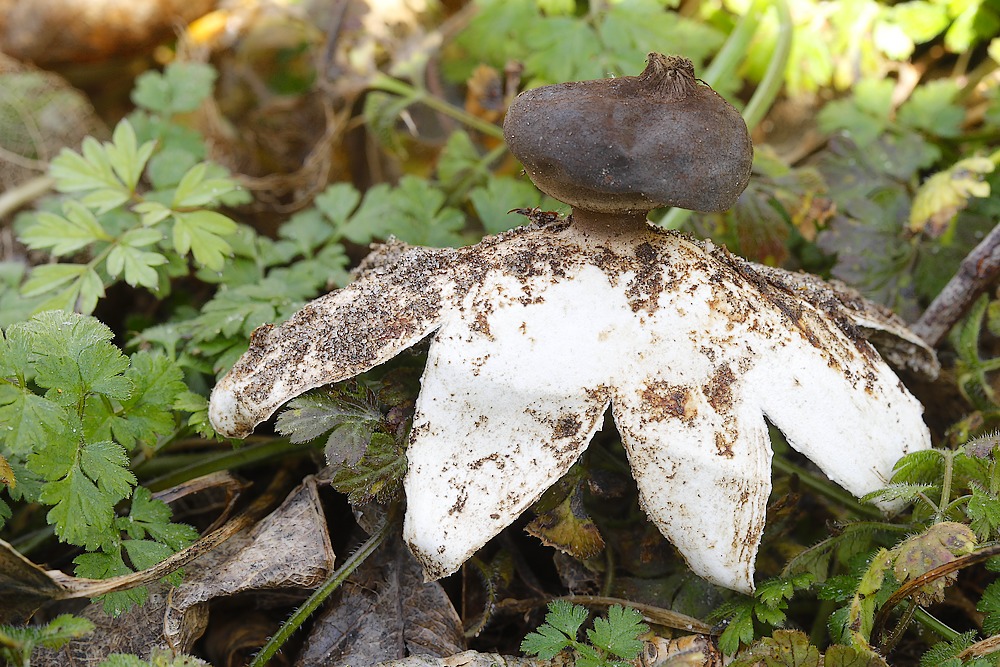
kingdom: Fungi
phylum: Basidiomycota
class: Agaricomycetes
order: Geastrales
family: Geastraceae
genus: Geastrum
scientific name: Geastrum coronatum
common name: mørk stjernebold
